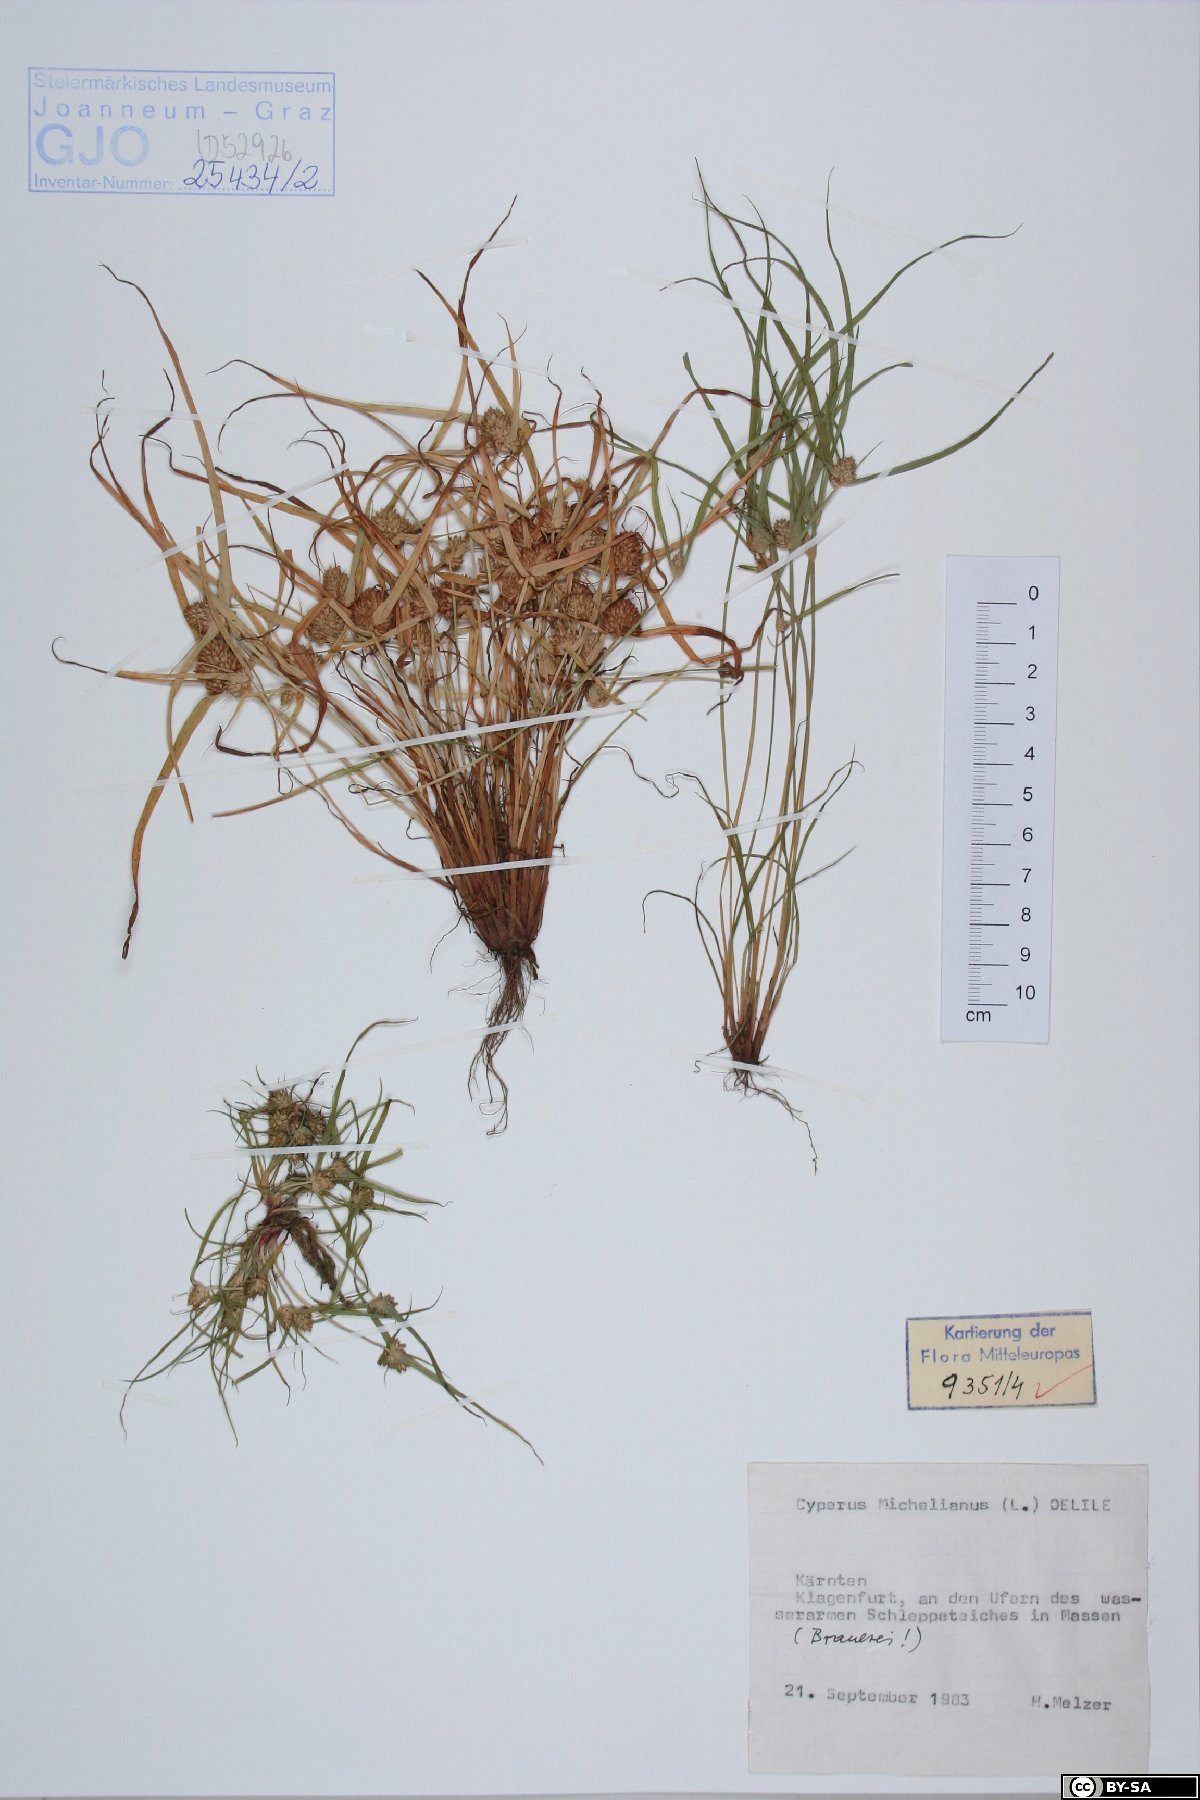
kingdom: Plantae
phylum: Tracheophyta
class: Liliopsida
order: Poales
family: Cyperaceae
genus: Cyperus
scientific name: Cyperus michelianus
